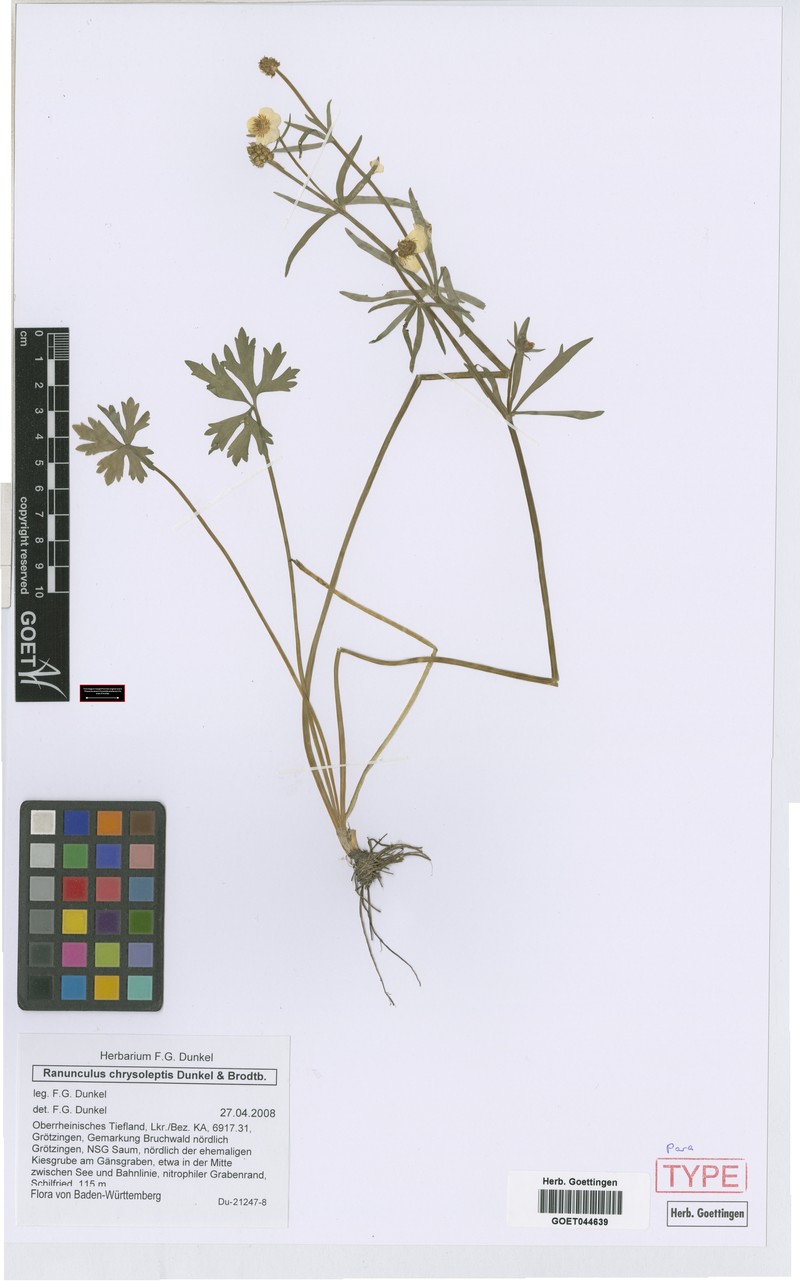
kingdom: Plantae
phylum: Tracheophyta
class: Magnoliopsida
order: Ranunculales
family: Ranunculaceae
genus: Ranunculus
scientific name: Ranunculus chrysoleptos
